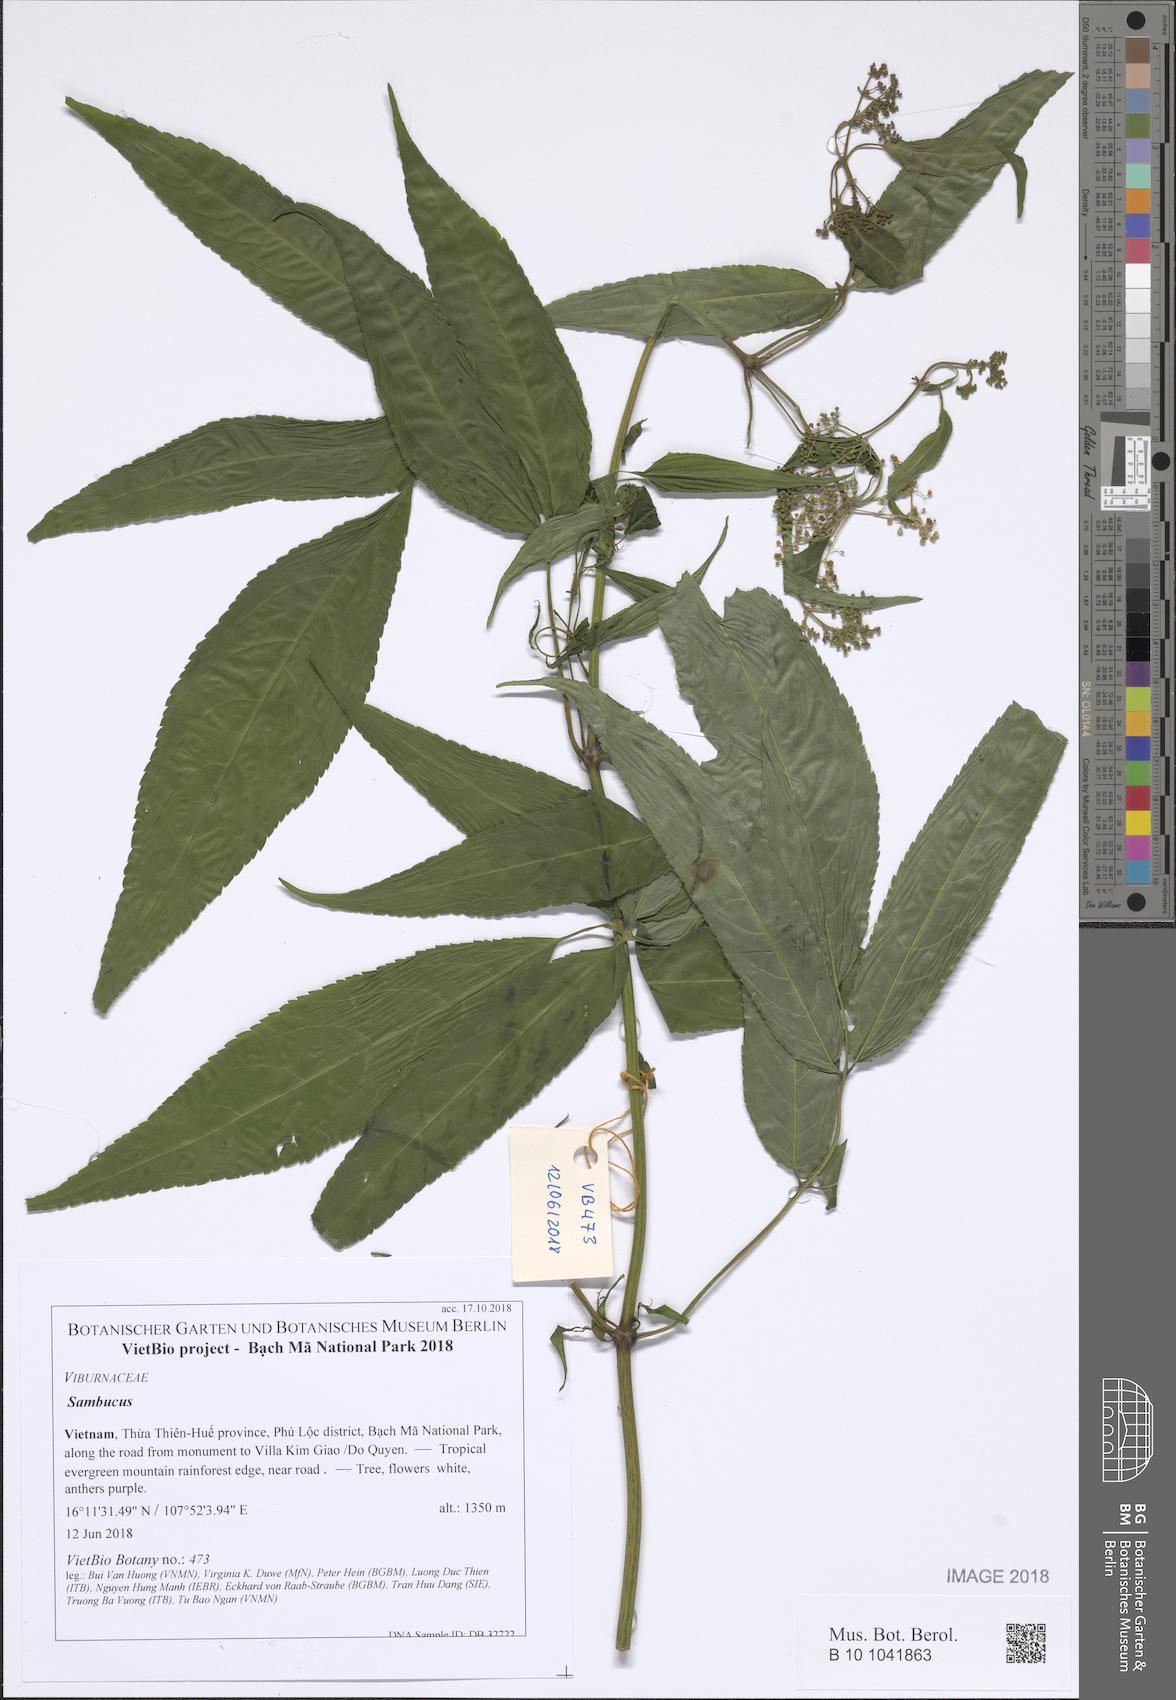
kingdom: Plantae
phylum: Tracheophyta
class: Magnoliopsida
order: Dipsacales
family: Viburnaceae
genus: Sambucus
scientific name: Sambucus javanica
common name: Chinese elder
